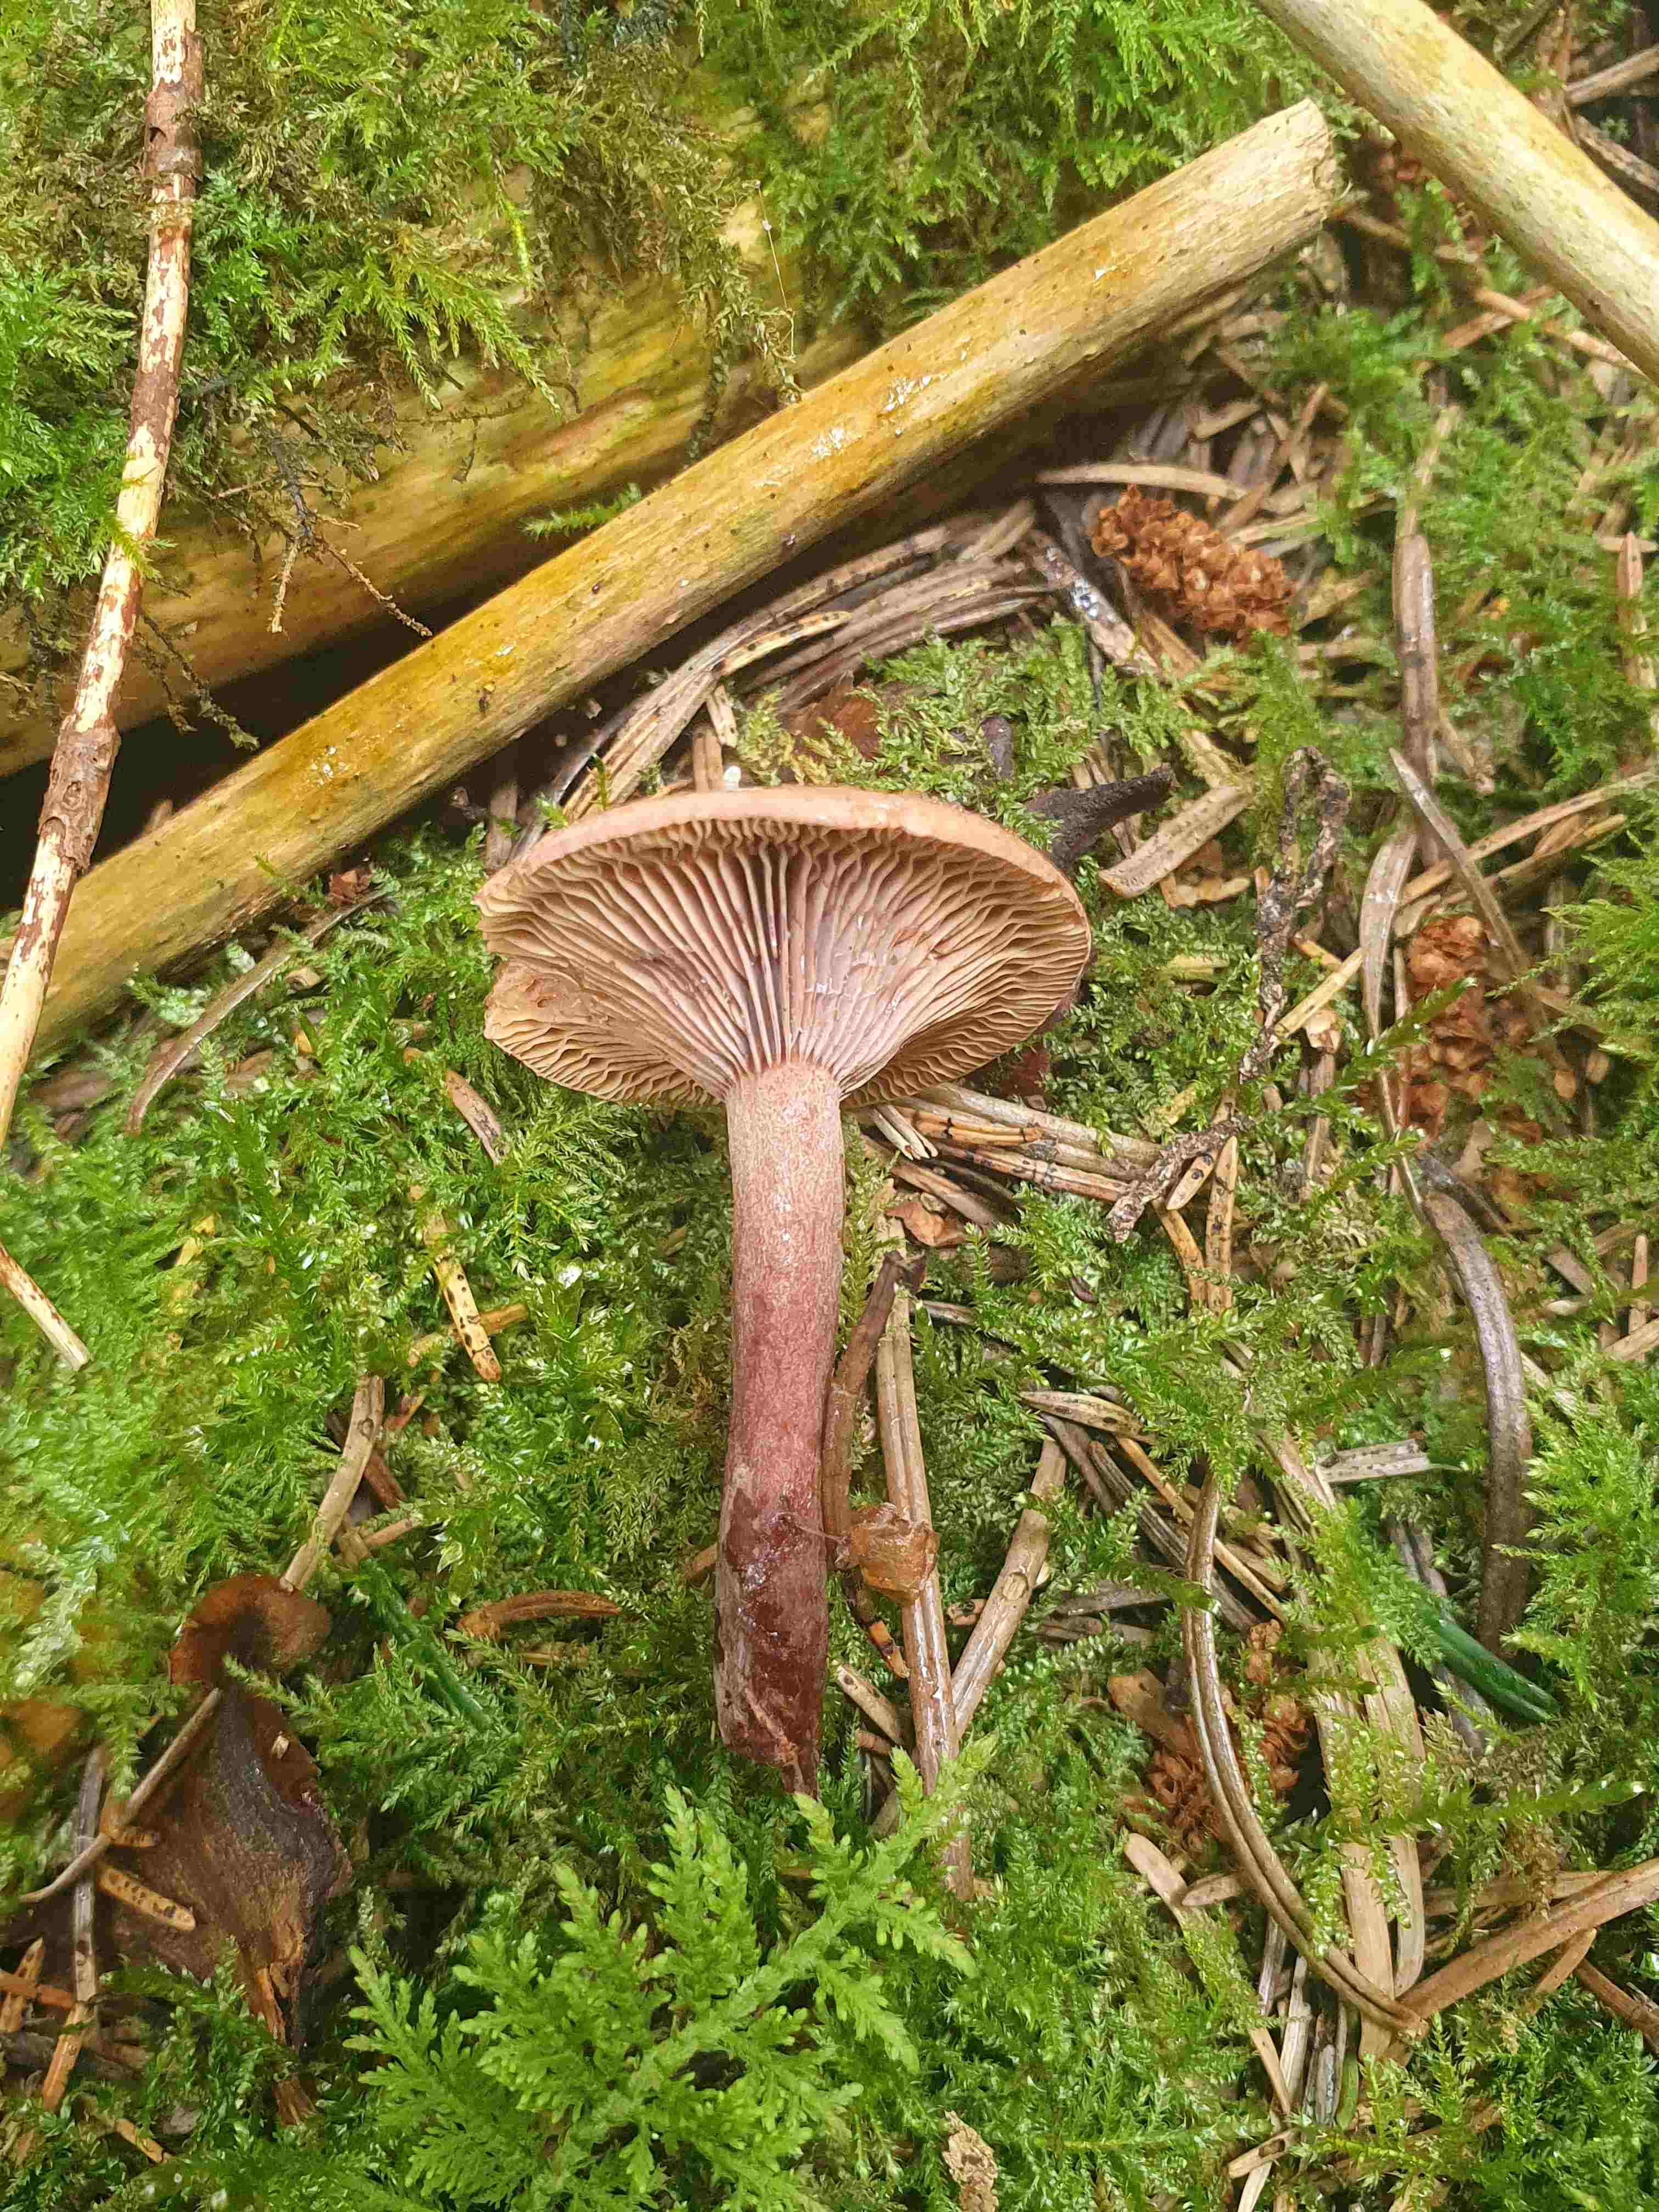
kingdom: Fungi
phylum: Basidiomycota
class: Agaricomycetes
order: Russulales
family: Russulaceae
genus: Lactarius
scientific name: Lactarius camphoratus
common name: kamfer-mælkehat
